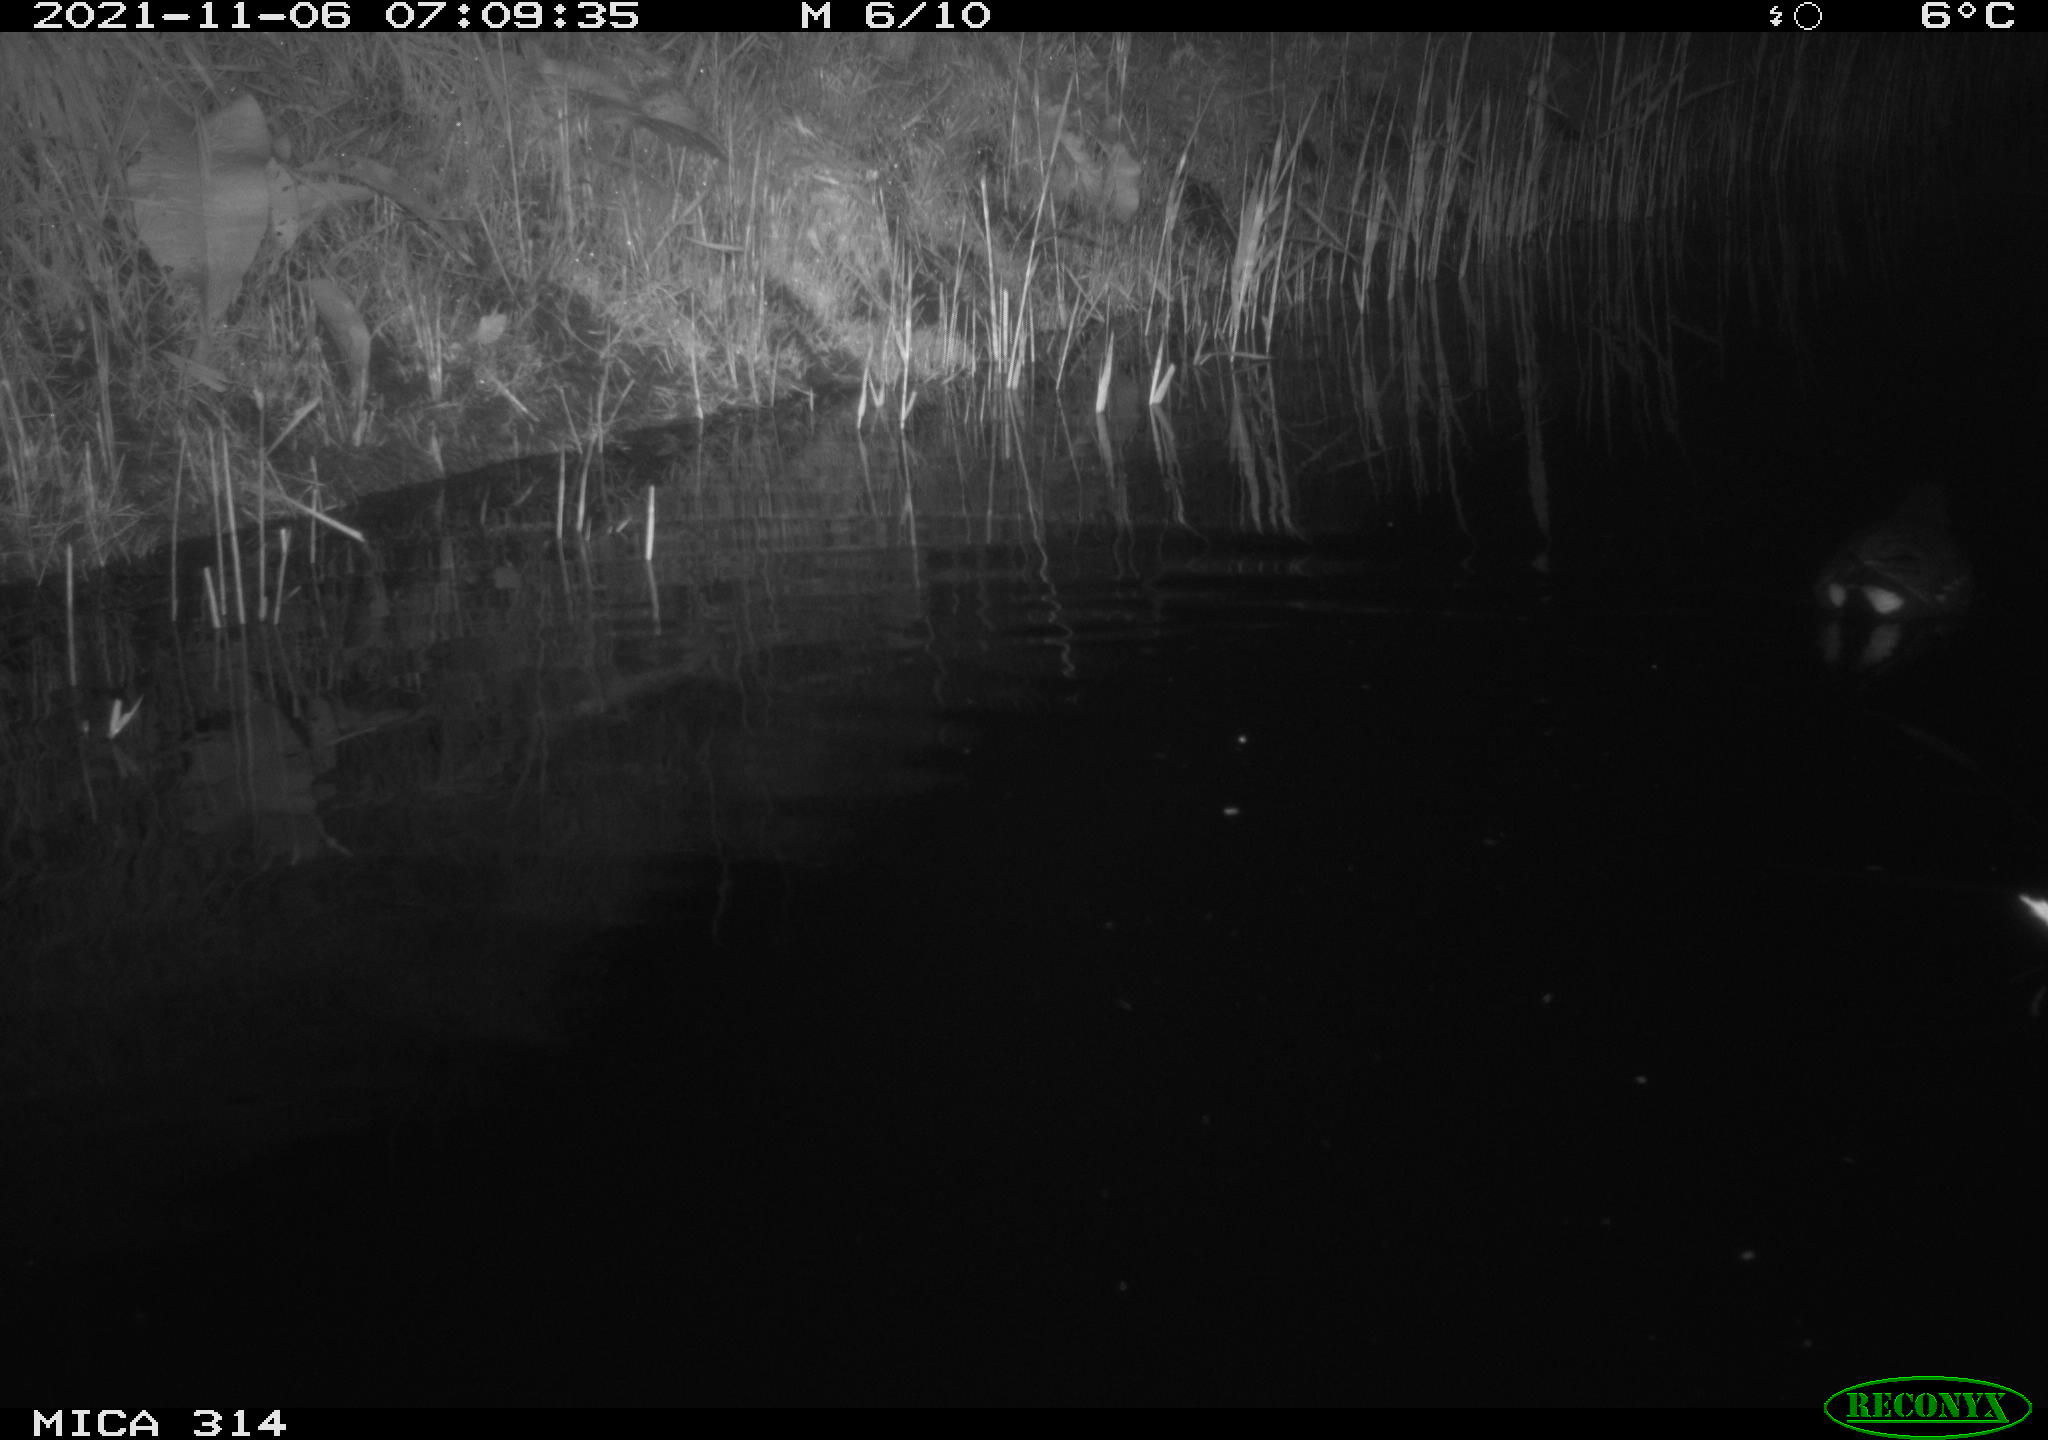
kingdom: Animalia
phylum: Chordata
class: Aves
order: Gruiformes
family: Rallidae
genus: Gallinula
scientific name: Gallinula chloropus
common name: Common moorhen
